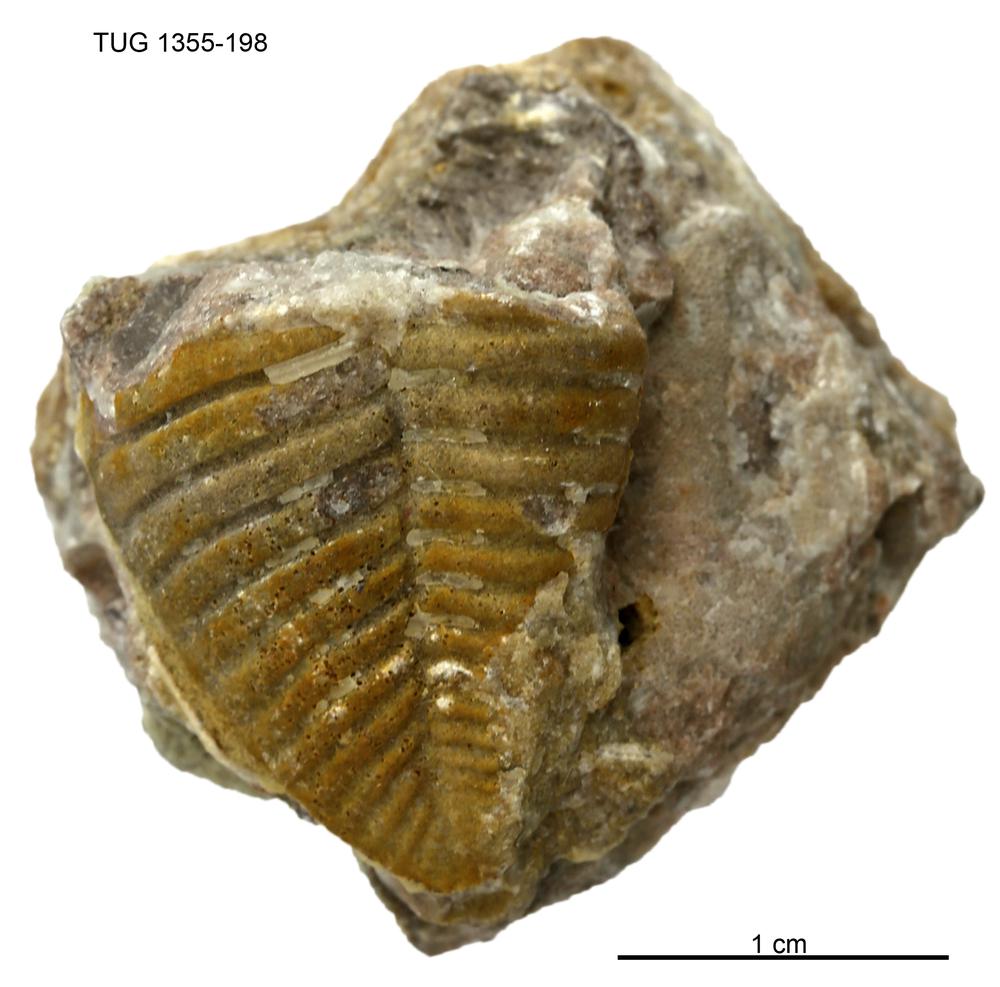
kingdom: Animalia
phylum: Arthropoda
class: Trilobita
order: Phacopida
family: Pterygometopidae
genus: Chasmops
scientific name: Chasmops macrourus
